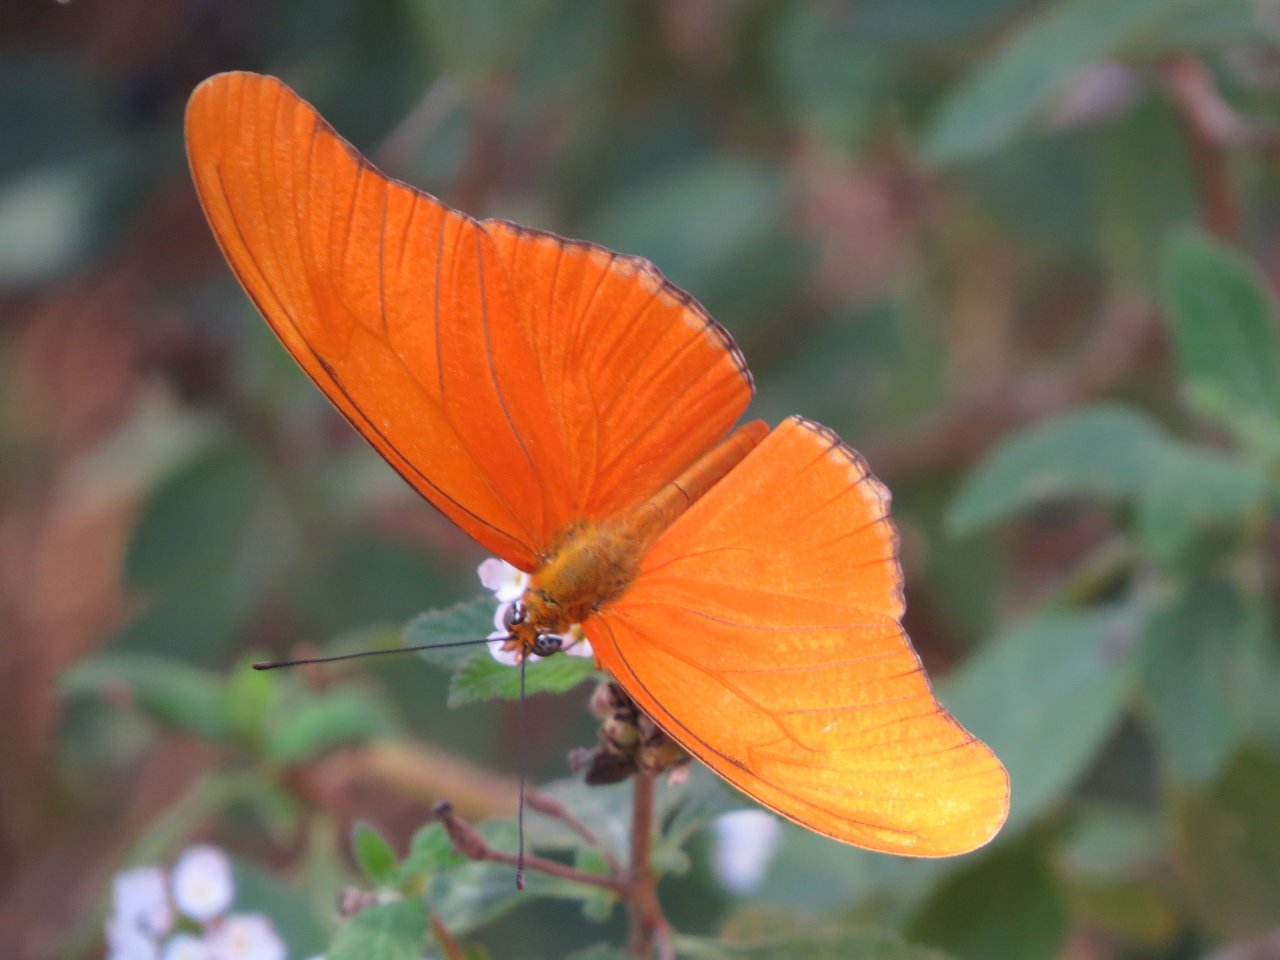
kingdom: Animalia
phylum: Arthropoda
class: Insecta
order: Lepidoptera
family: Nymphalidae
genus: Dryas
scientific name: Dryas iulia
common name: Julia
